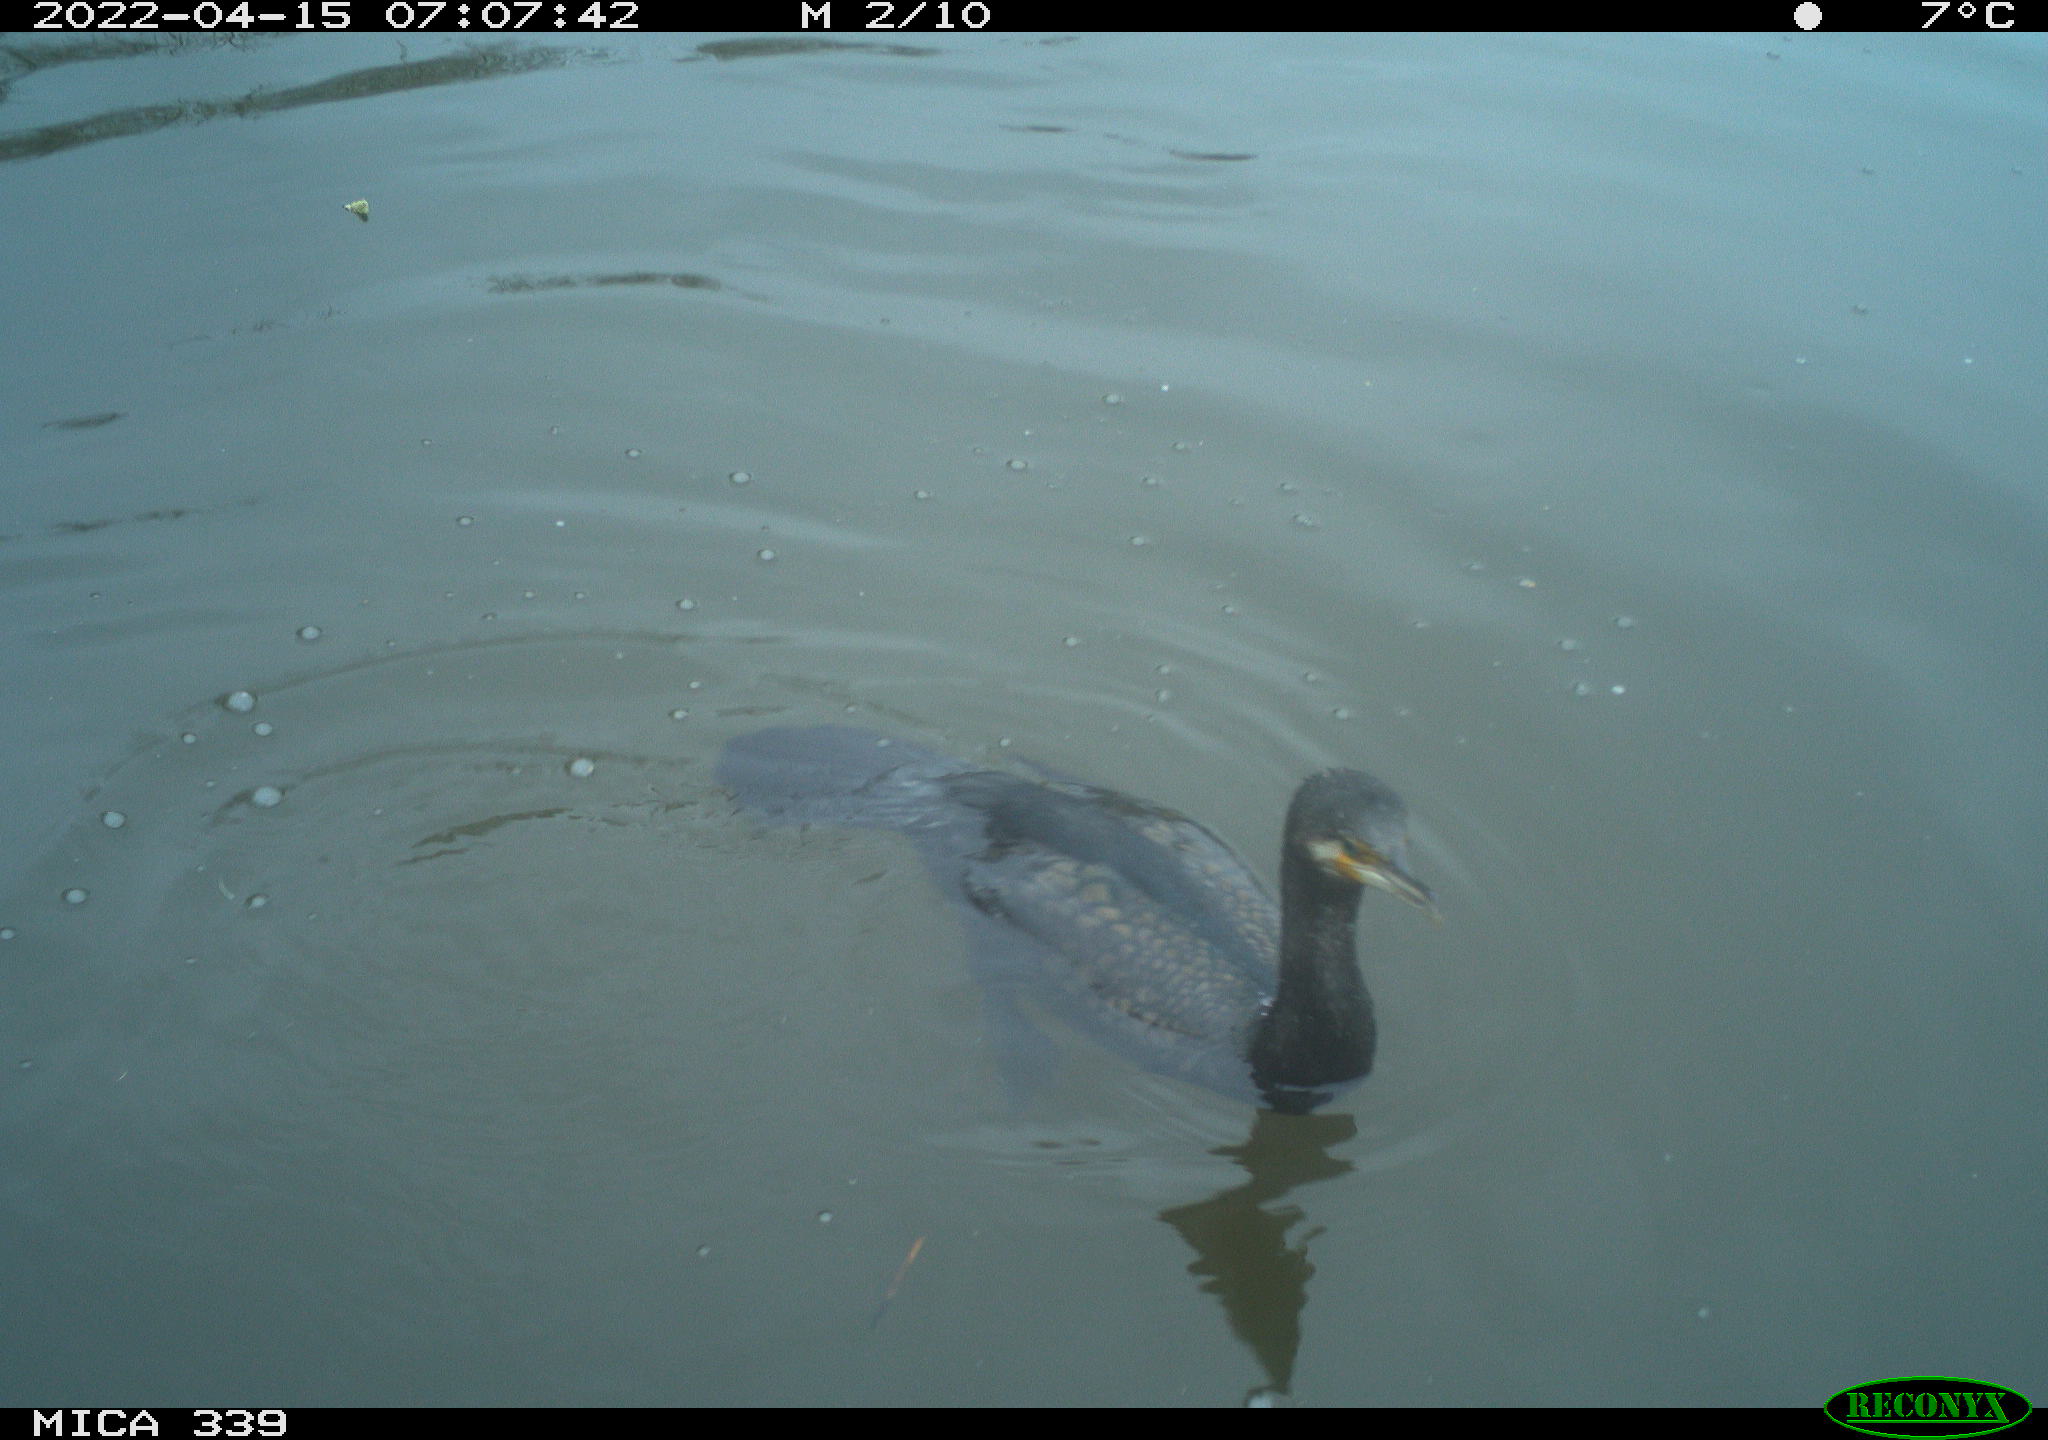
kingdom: Animalia
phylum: Chordata
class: Aves
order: Suliformes
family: Phalacrocoracidae
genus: Phalacrocorax
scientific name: Phalacrocorax carbo
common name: Great cormorant
